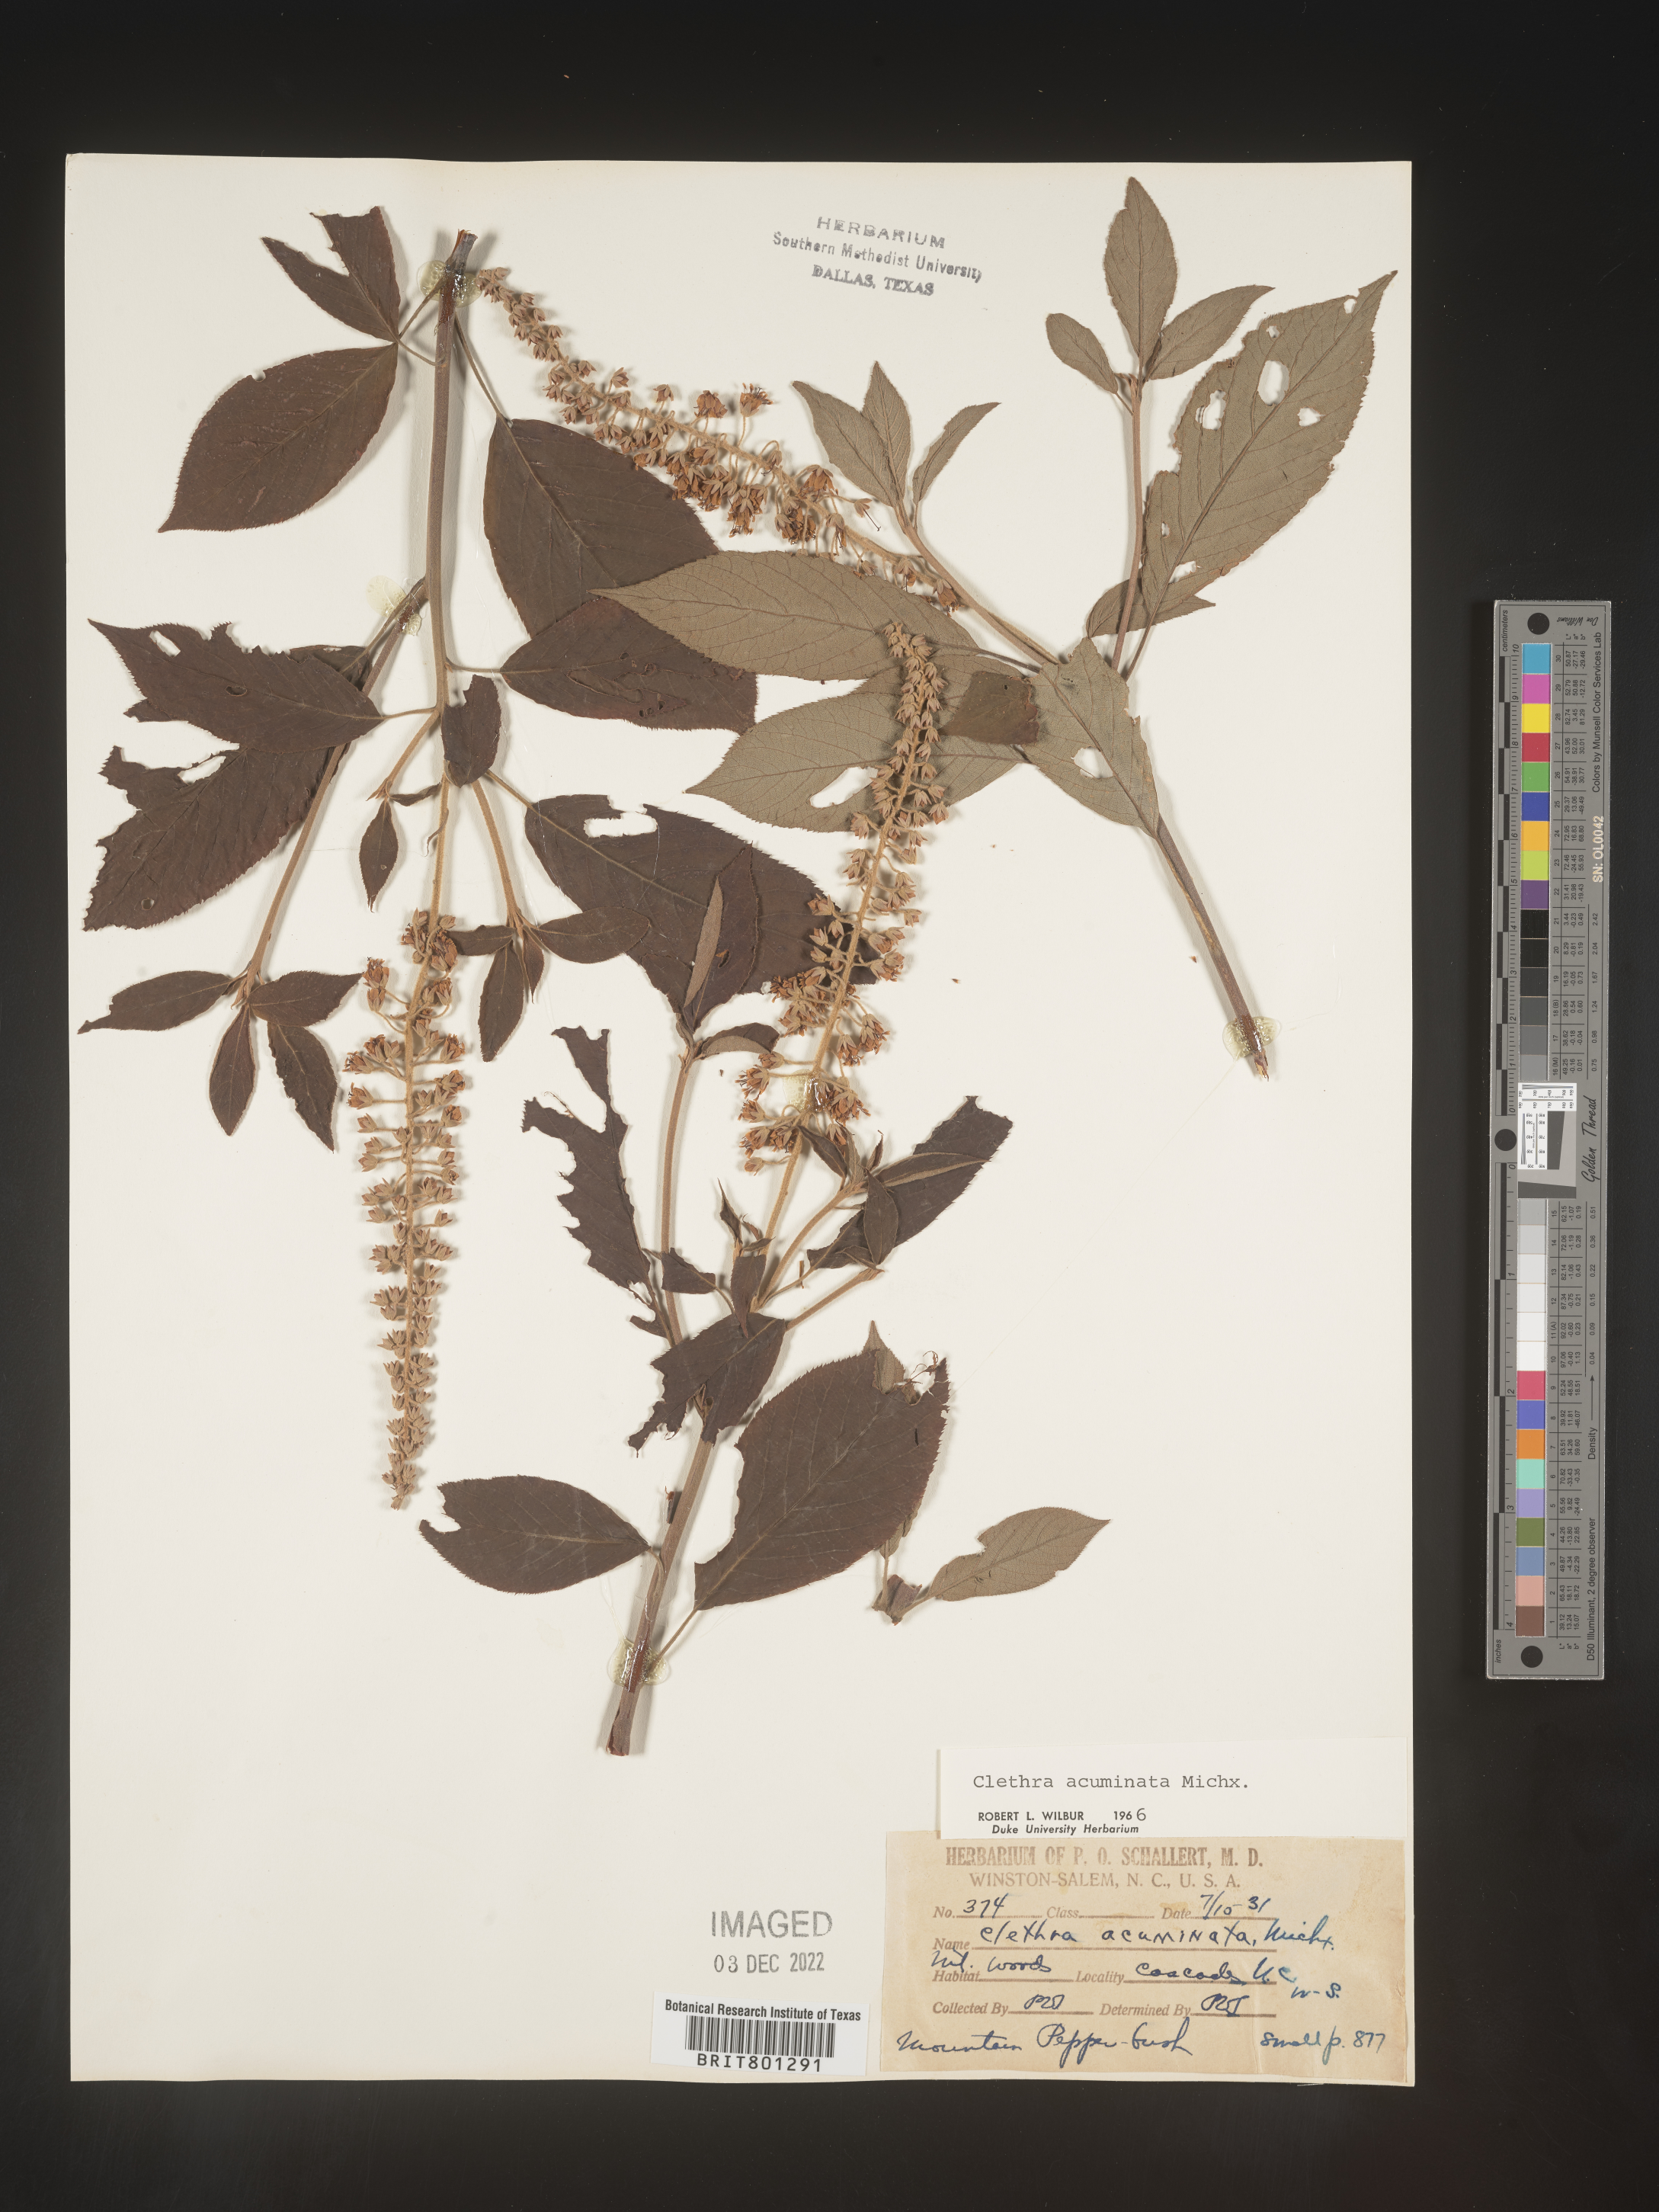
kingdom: Plantae
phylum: Tracheophyta
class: Magnoliopsida
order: Ericales
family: Clethraceae
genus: Clethra
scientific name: Clethra acuminata
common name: Mountain sweet pepperbush
